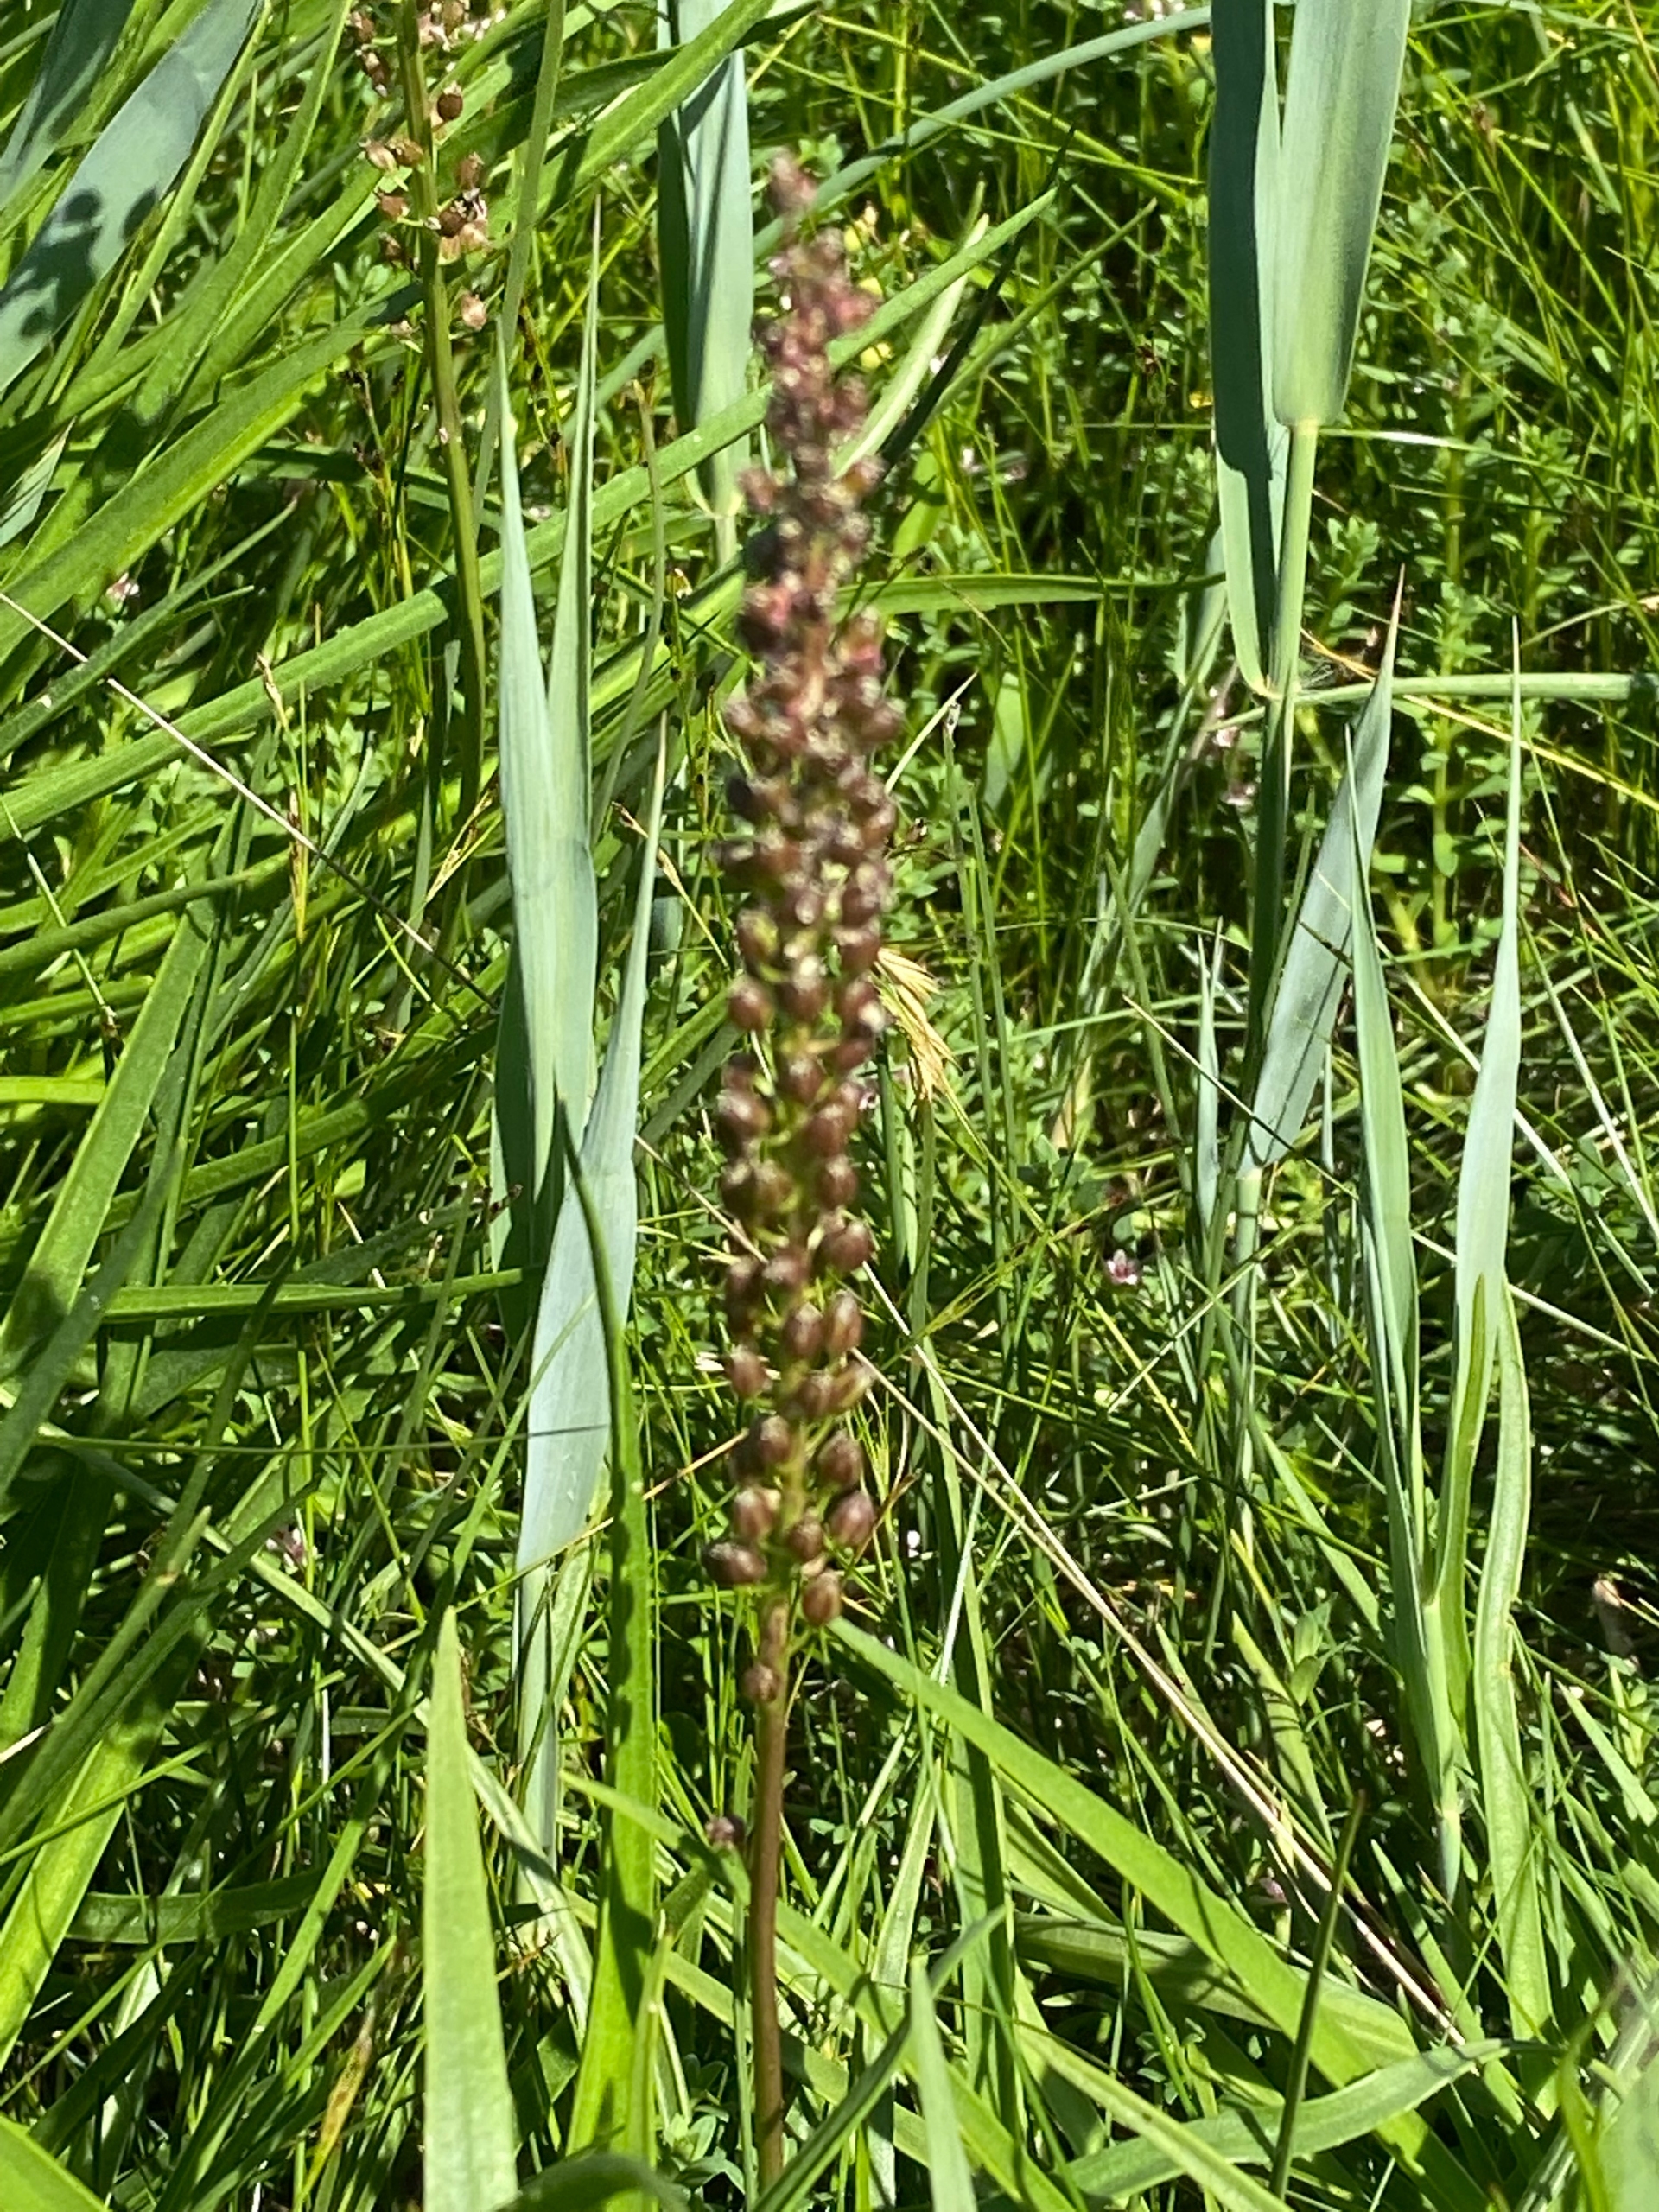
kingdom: Plantae
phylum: Tracheophyta
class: Liliopsida
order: Alismatales
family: Juncaginaceae
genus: Triglochin
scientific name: Triglochin maritima
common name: Strand-trehage
